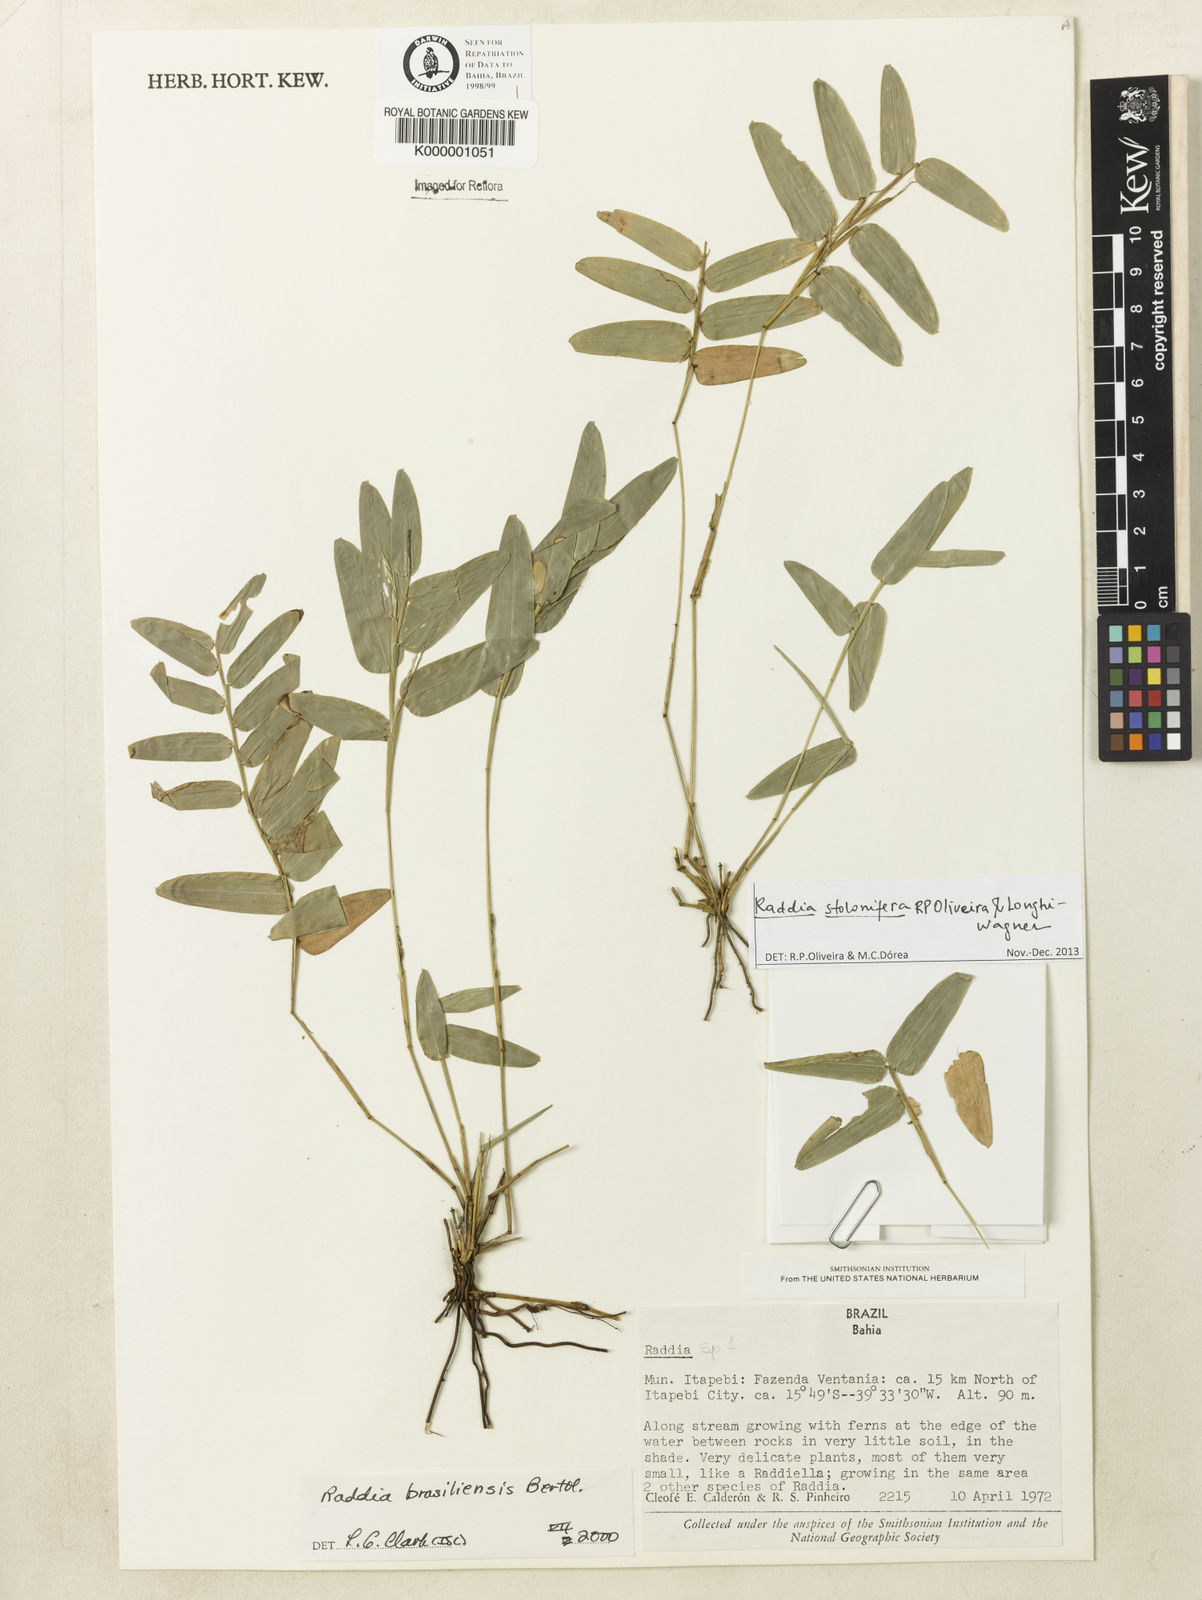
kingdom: Plantae
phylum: Tracheophyta
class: Liliopsida
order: Poales
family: Poaceae
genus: Raddia
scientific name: Raddia distichophylla
